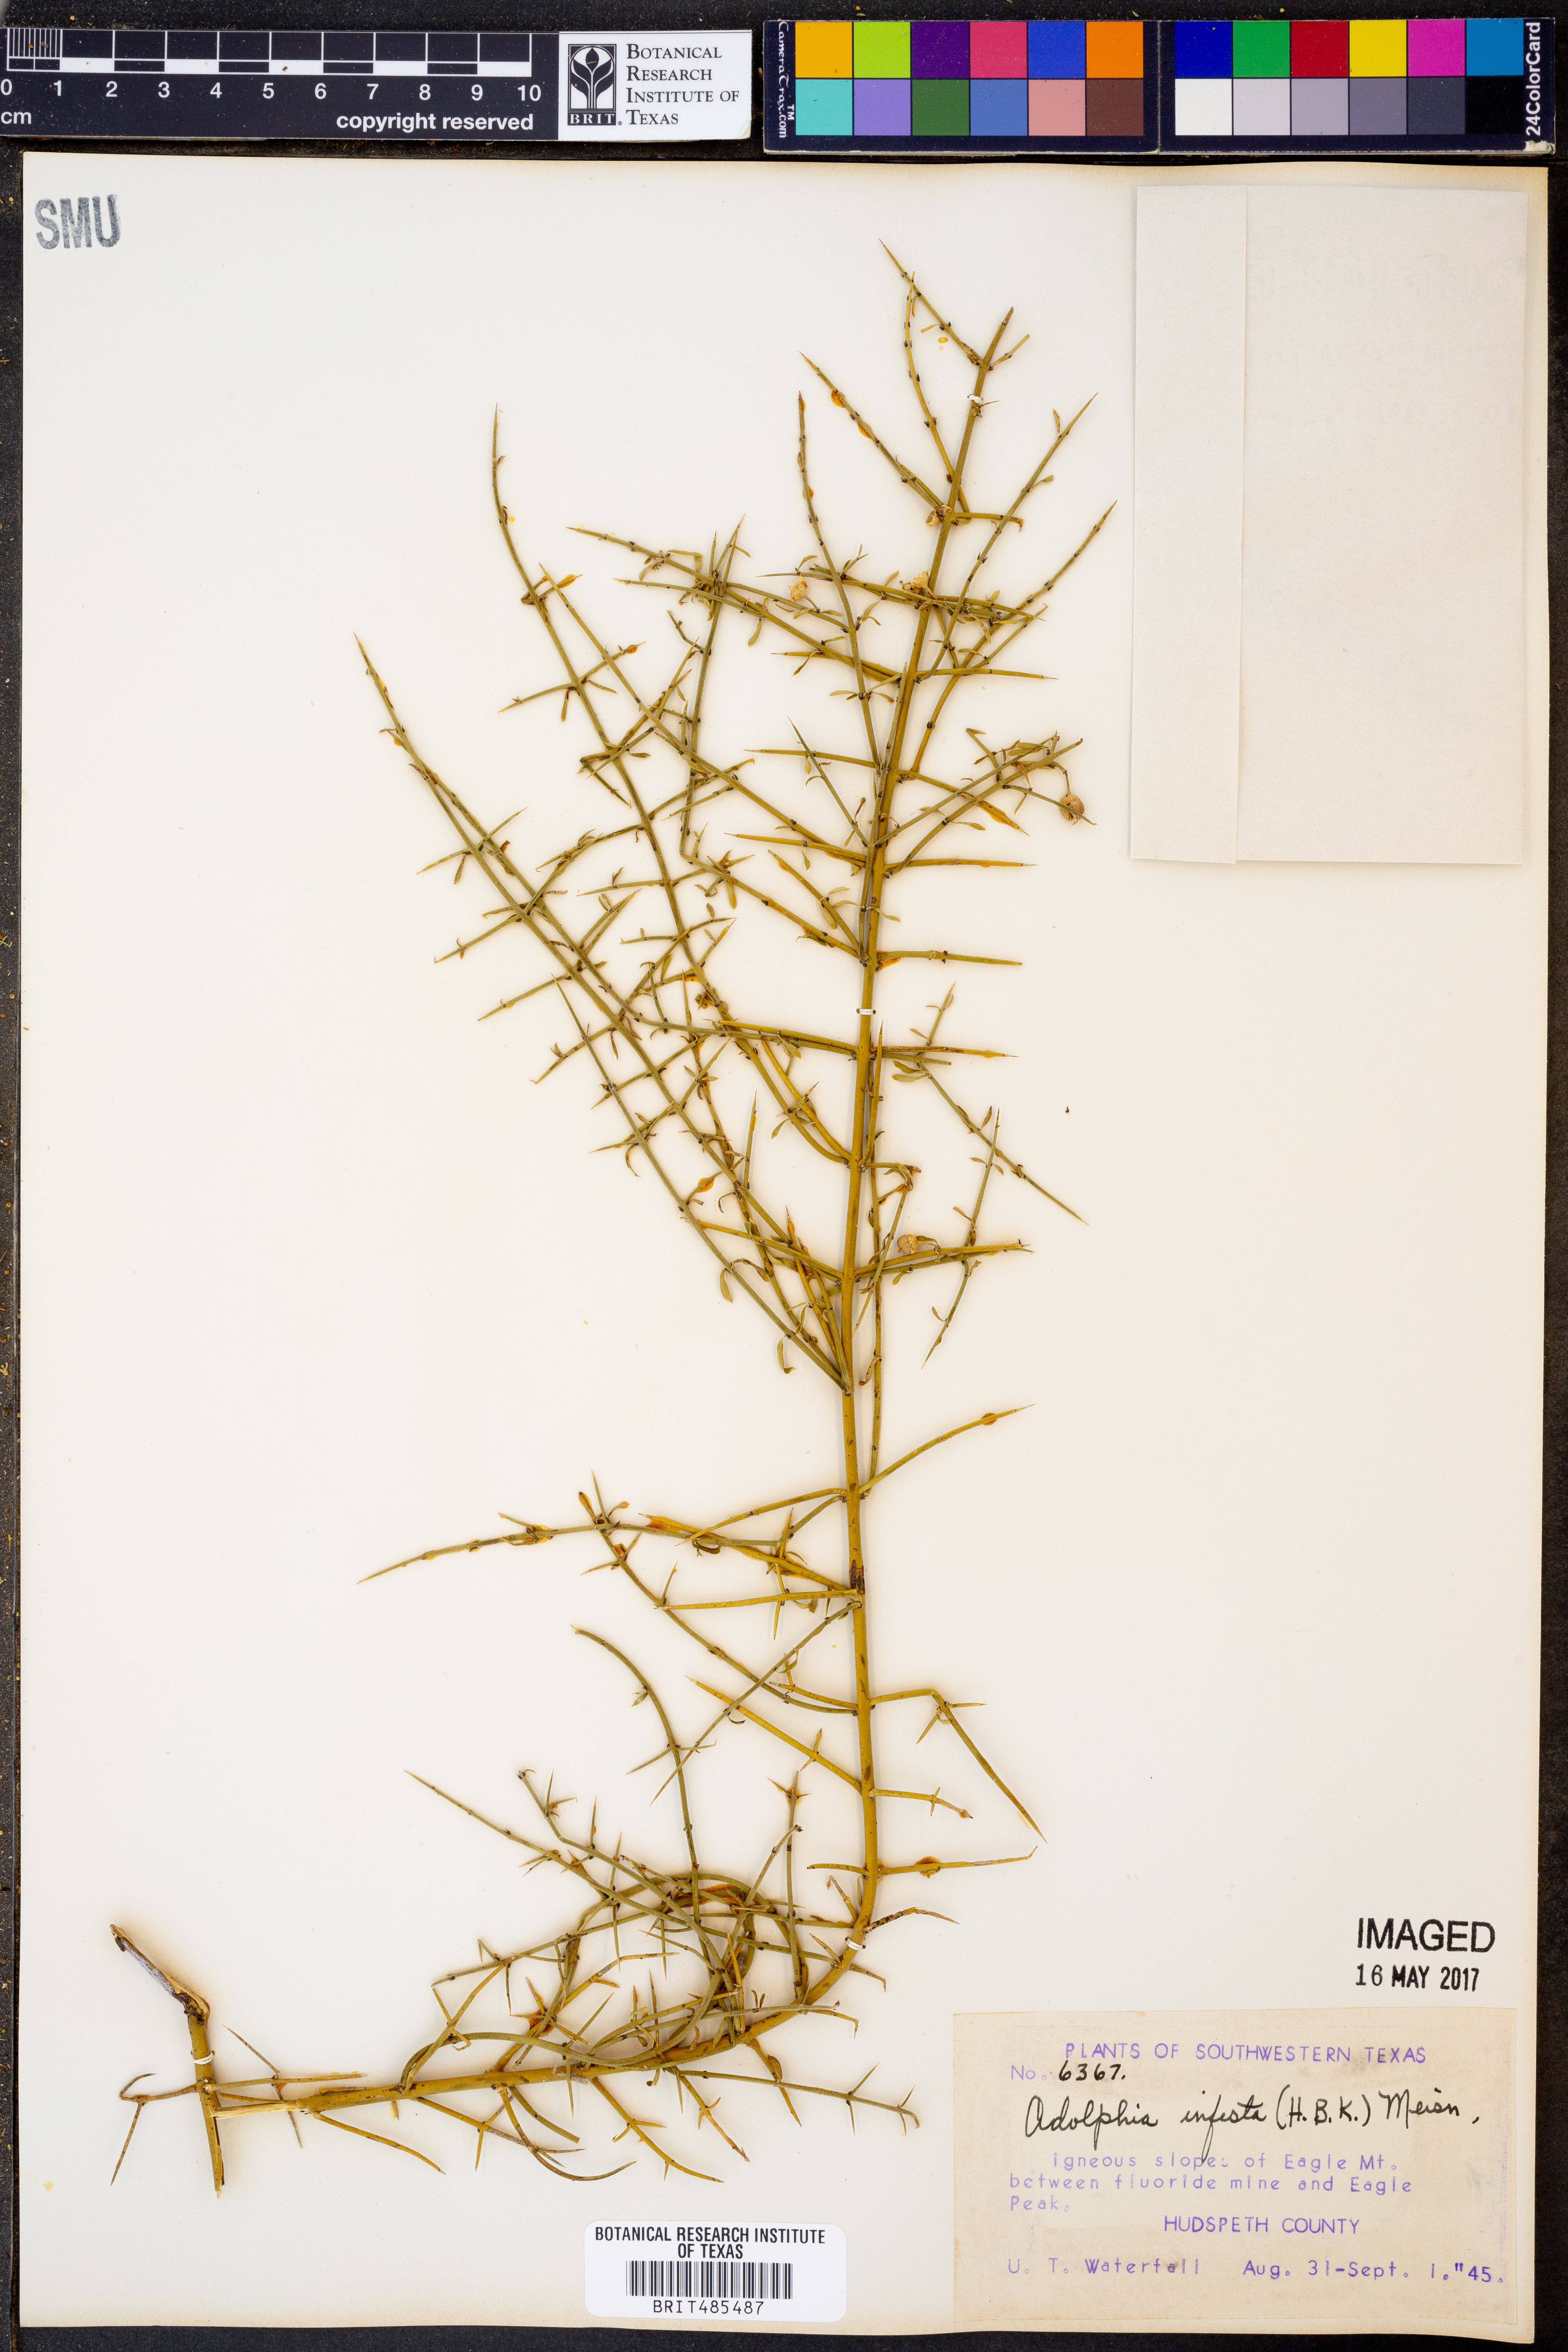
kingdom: Plantae
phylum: Tracheophyta
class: Magnoliopsida
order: Rosales
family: Rhamnaceae
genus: Adolphia
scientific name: Adolphia infesta
